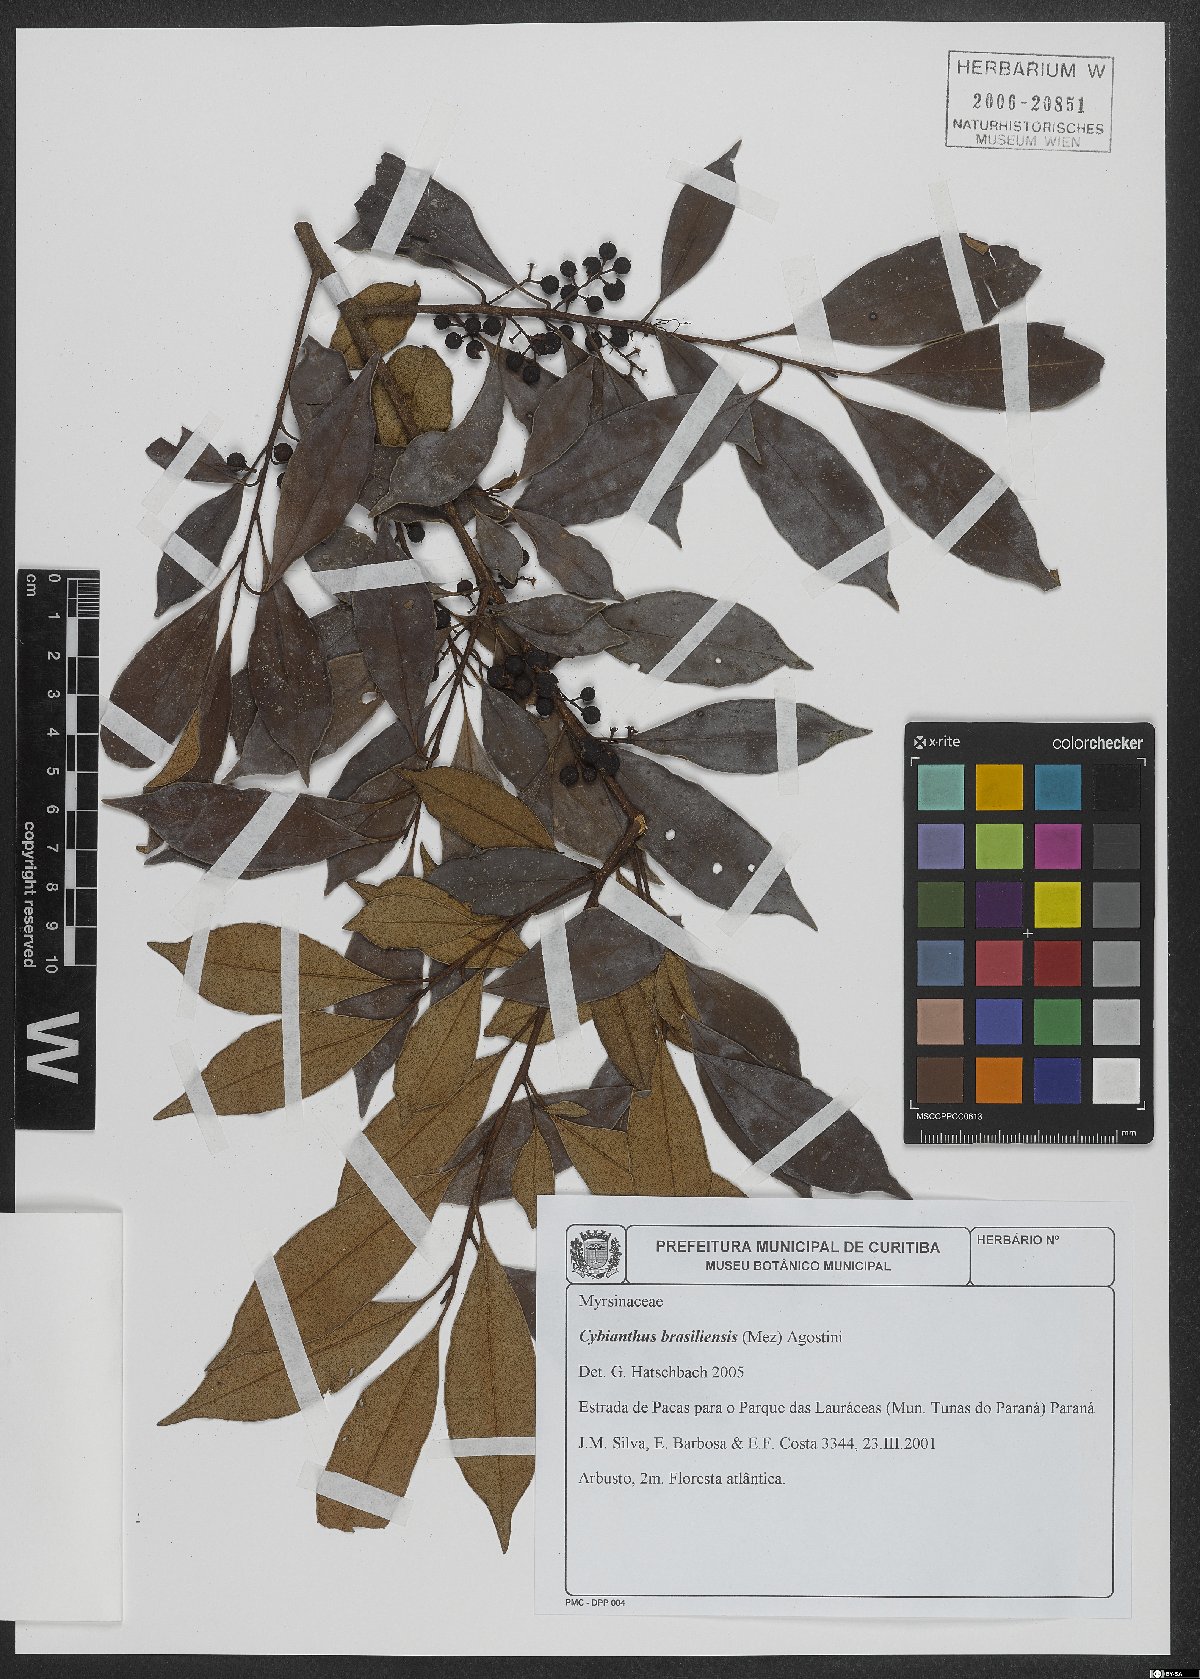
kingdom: Plantae
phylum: Tracheophyta
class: Magnoliopsida
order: Ericales
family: Primulaceae
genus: Cybianthus
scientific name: Cybianthus peruvianus
